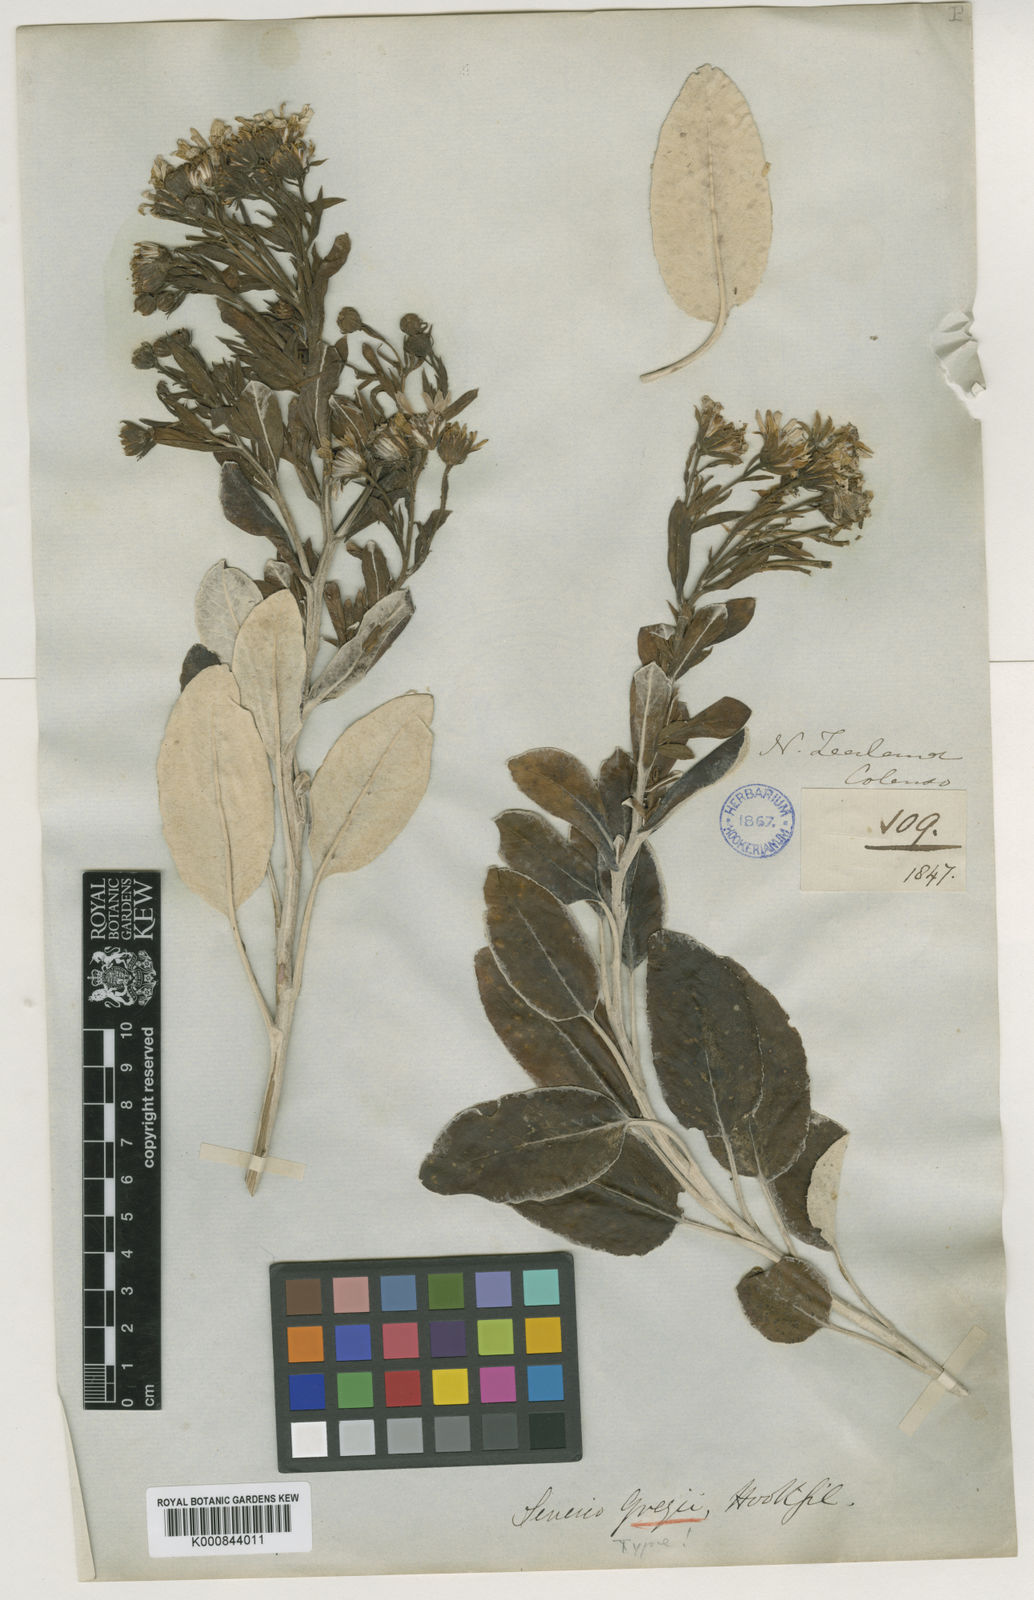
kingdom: Plantae
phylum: Tracheophyta
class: Magnoliopsida
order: Asterales
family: Asteraceae
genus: Brachyglottis
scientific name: Brachyglottis greyi
